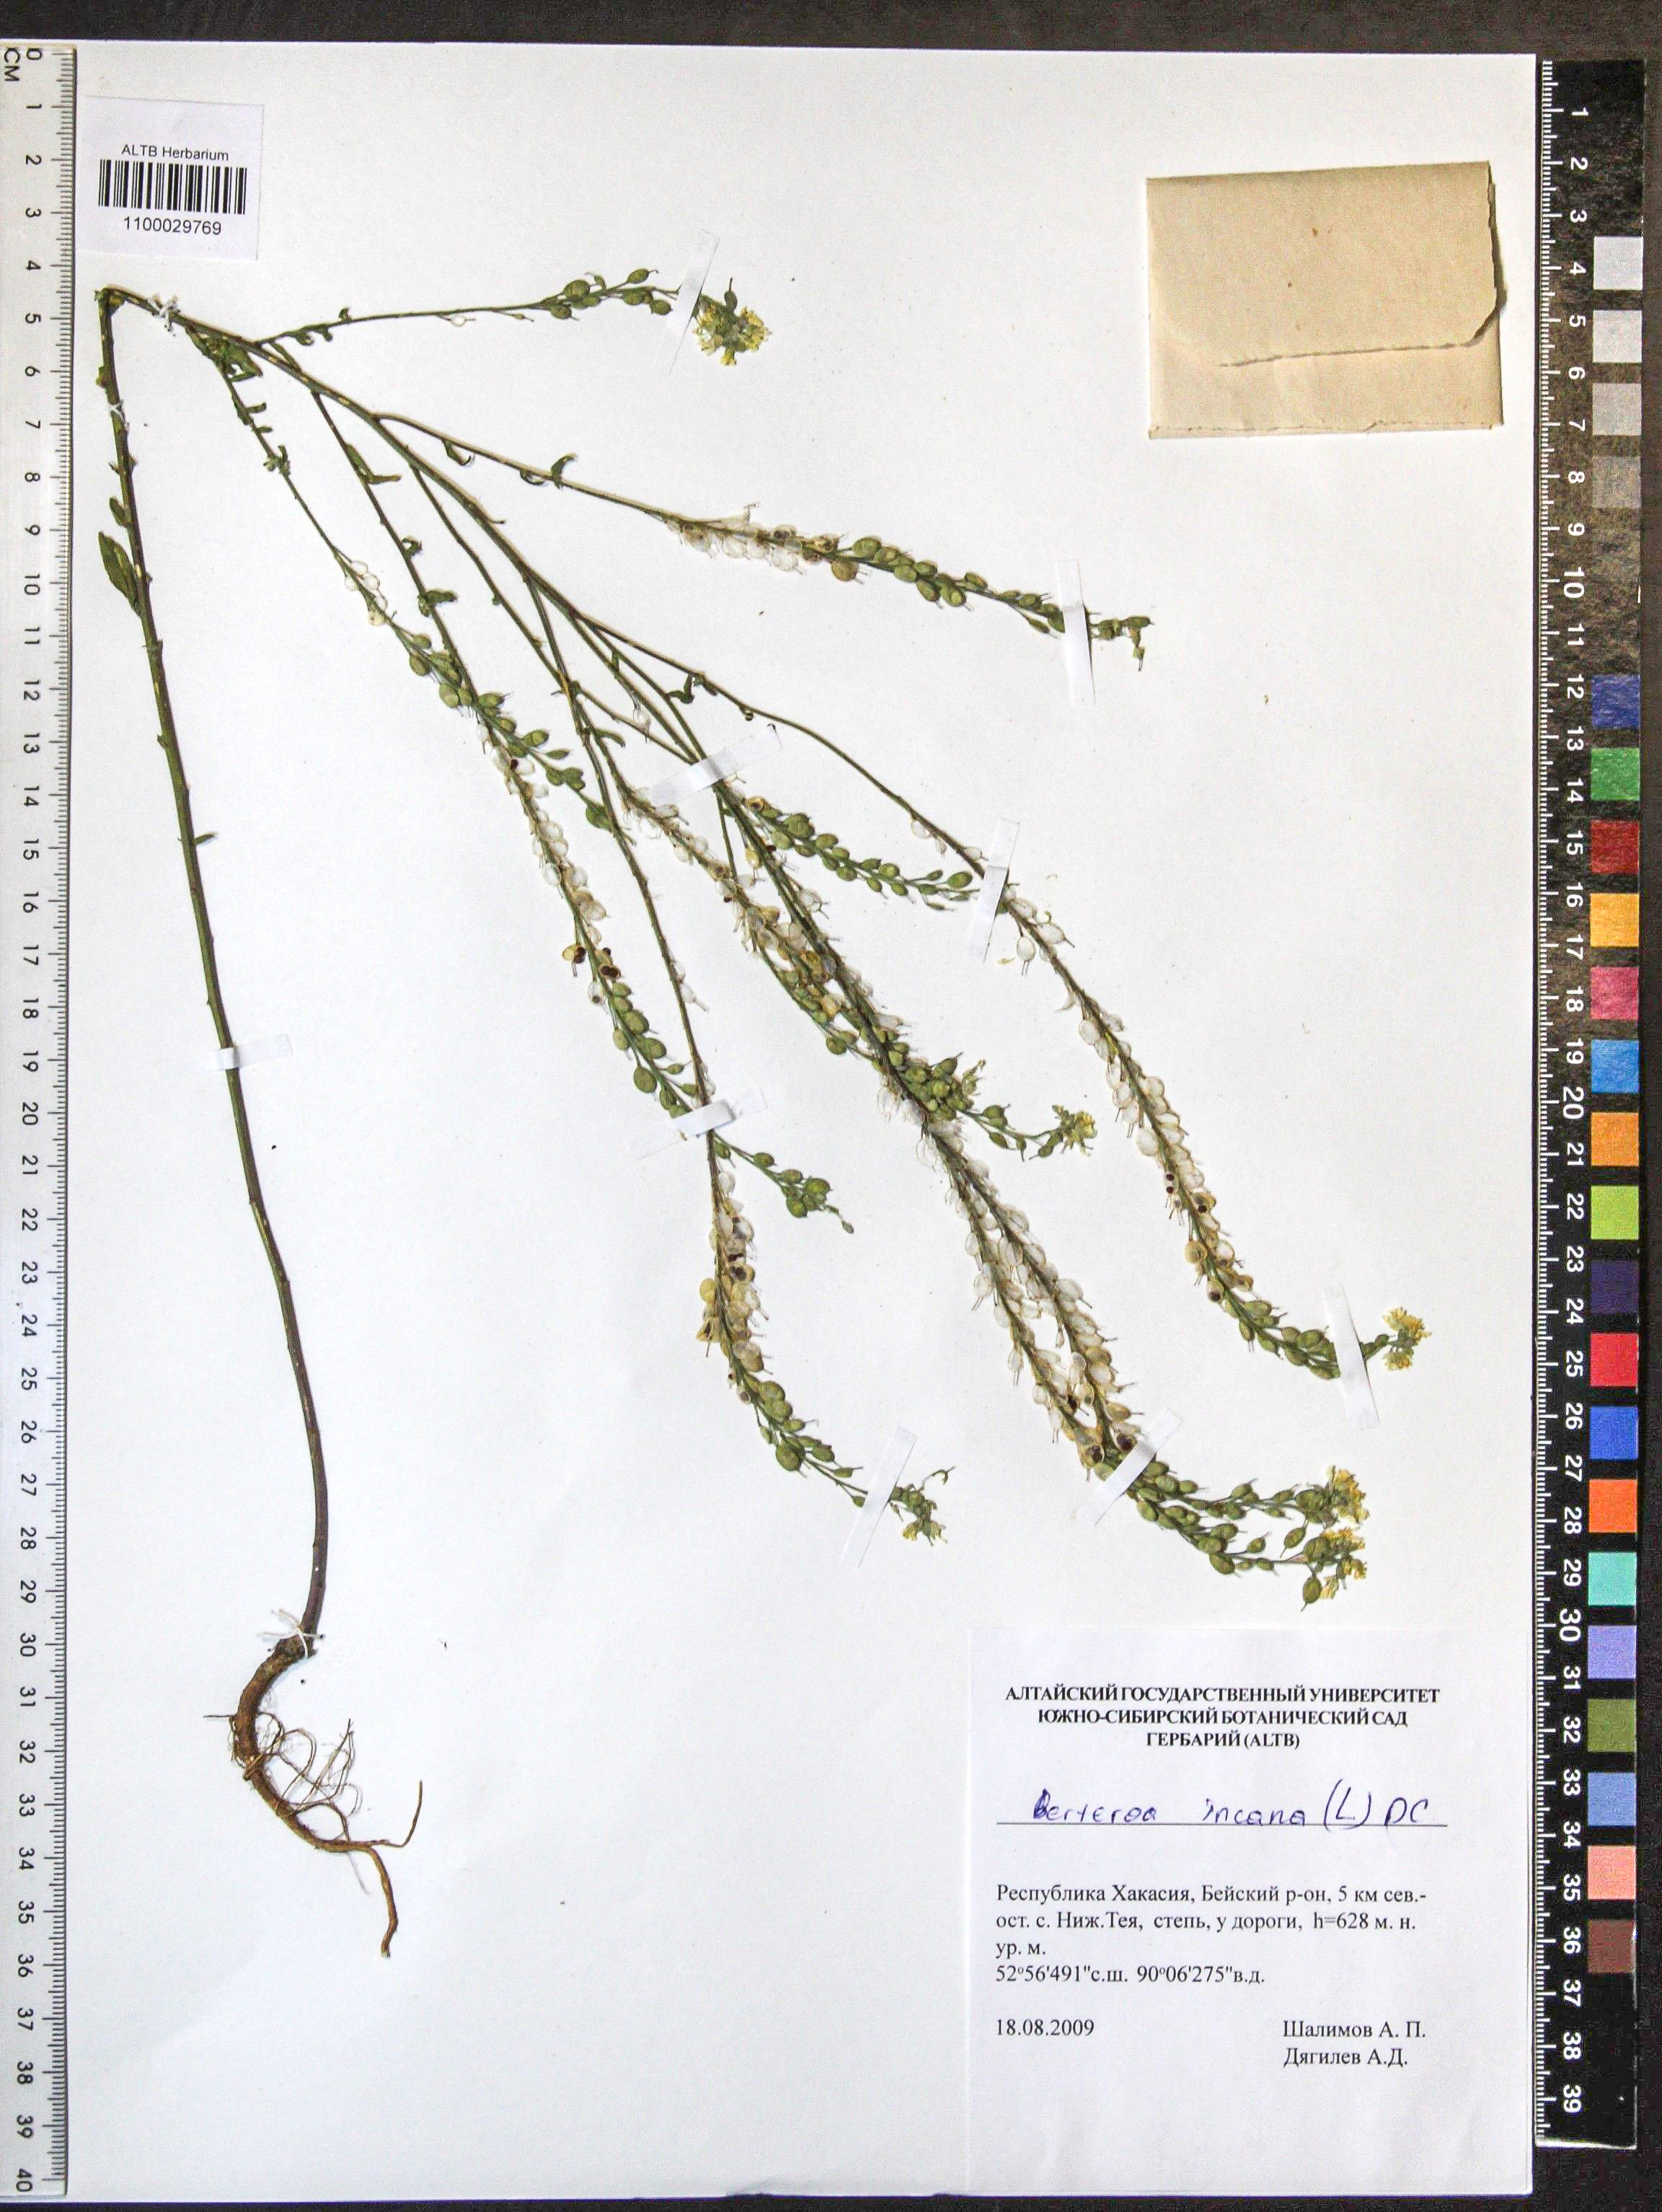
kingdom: Plantae
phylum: Tracheophyta
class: Magnoliopsida
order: Brassicales
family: Brassicaceae
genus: Berteroa
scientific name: Berteroa incana
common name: Hoary alison
